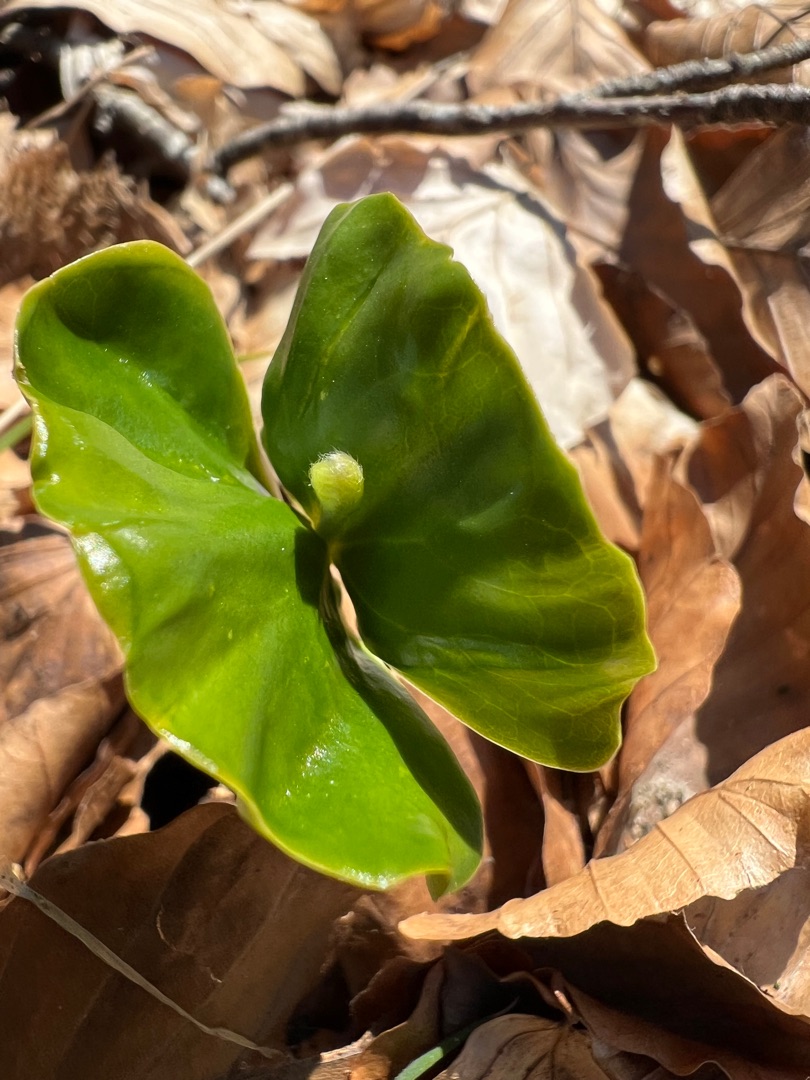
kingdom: Plantae
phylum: Tracheophyta
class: Magnoliopsida
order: Fagales
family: Fagaceae
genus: Fagus
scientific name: Fagus sylvatica
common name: Bøg
